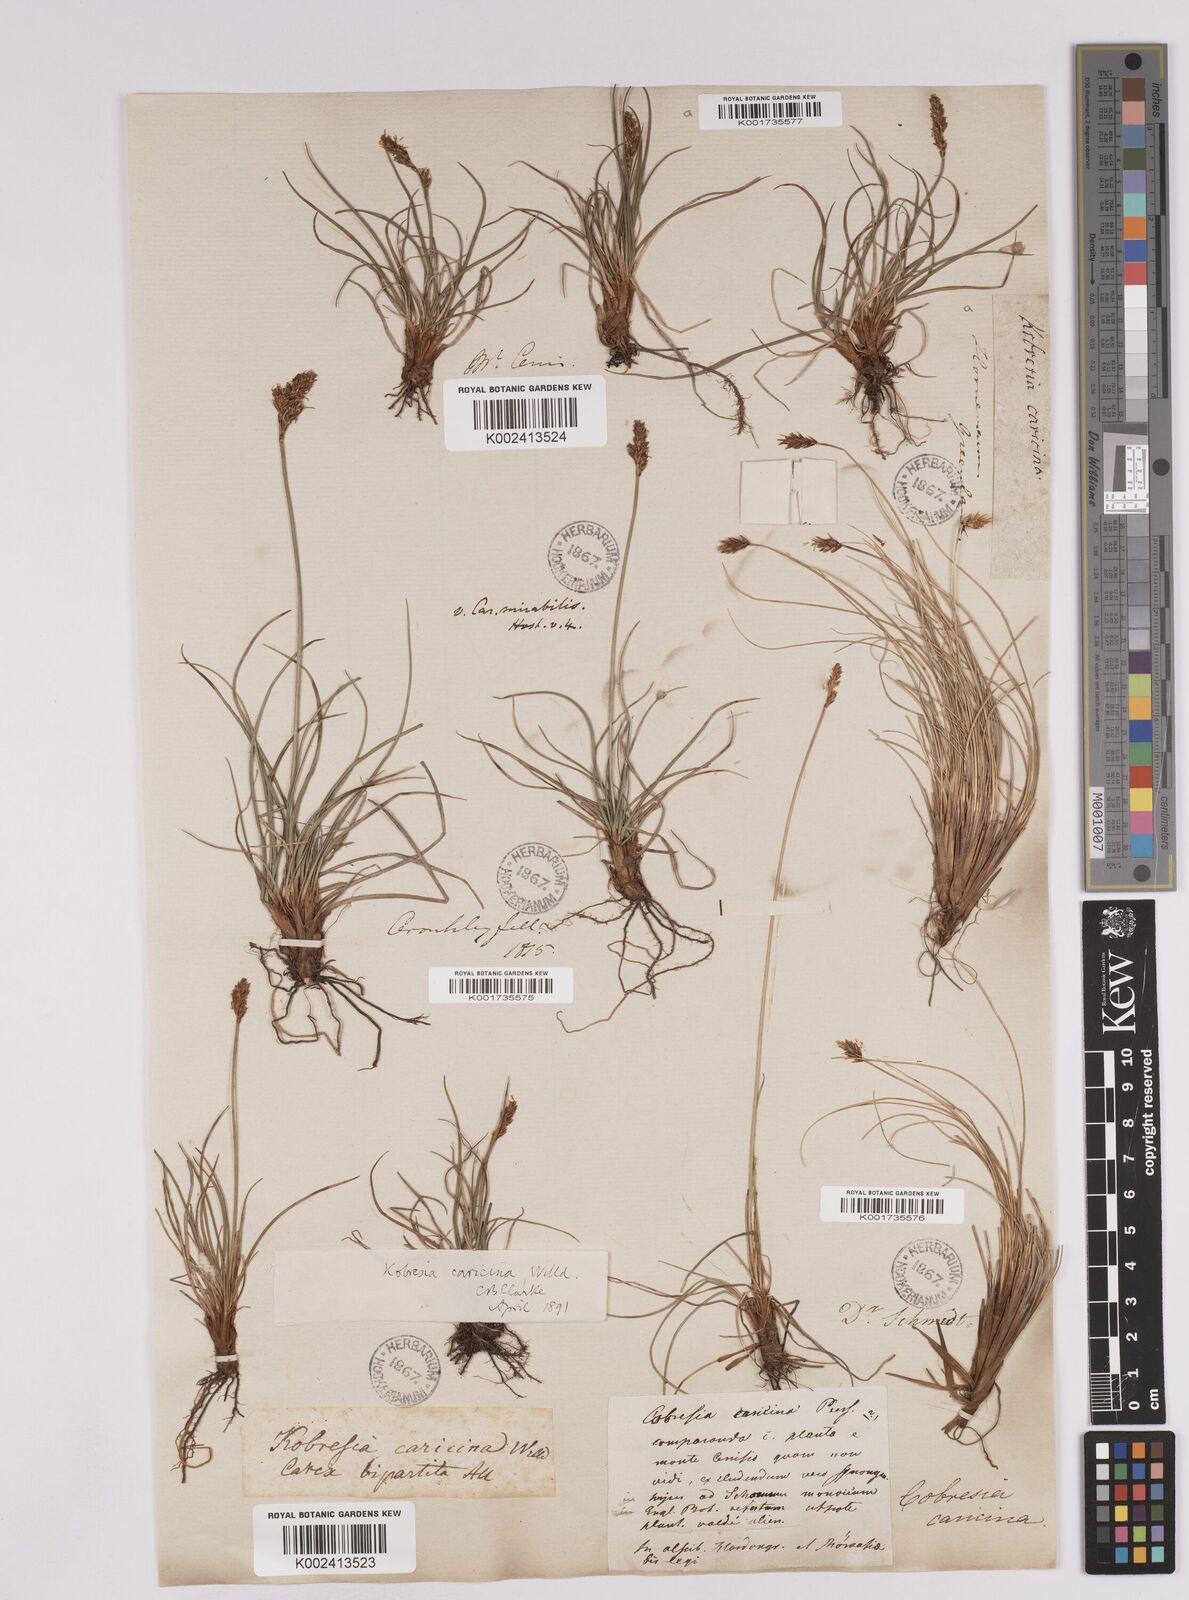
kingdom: Plantae
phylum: Tracheophyta
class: Liliopsida
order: Poales
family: Cyperaceae
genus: Carex
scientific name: Carex simpliciuscula
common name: Simple bog sedge
